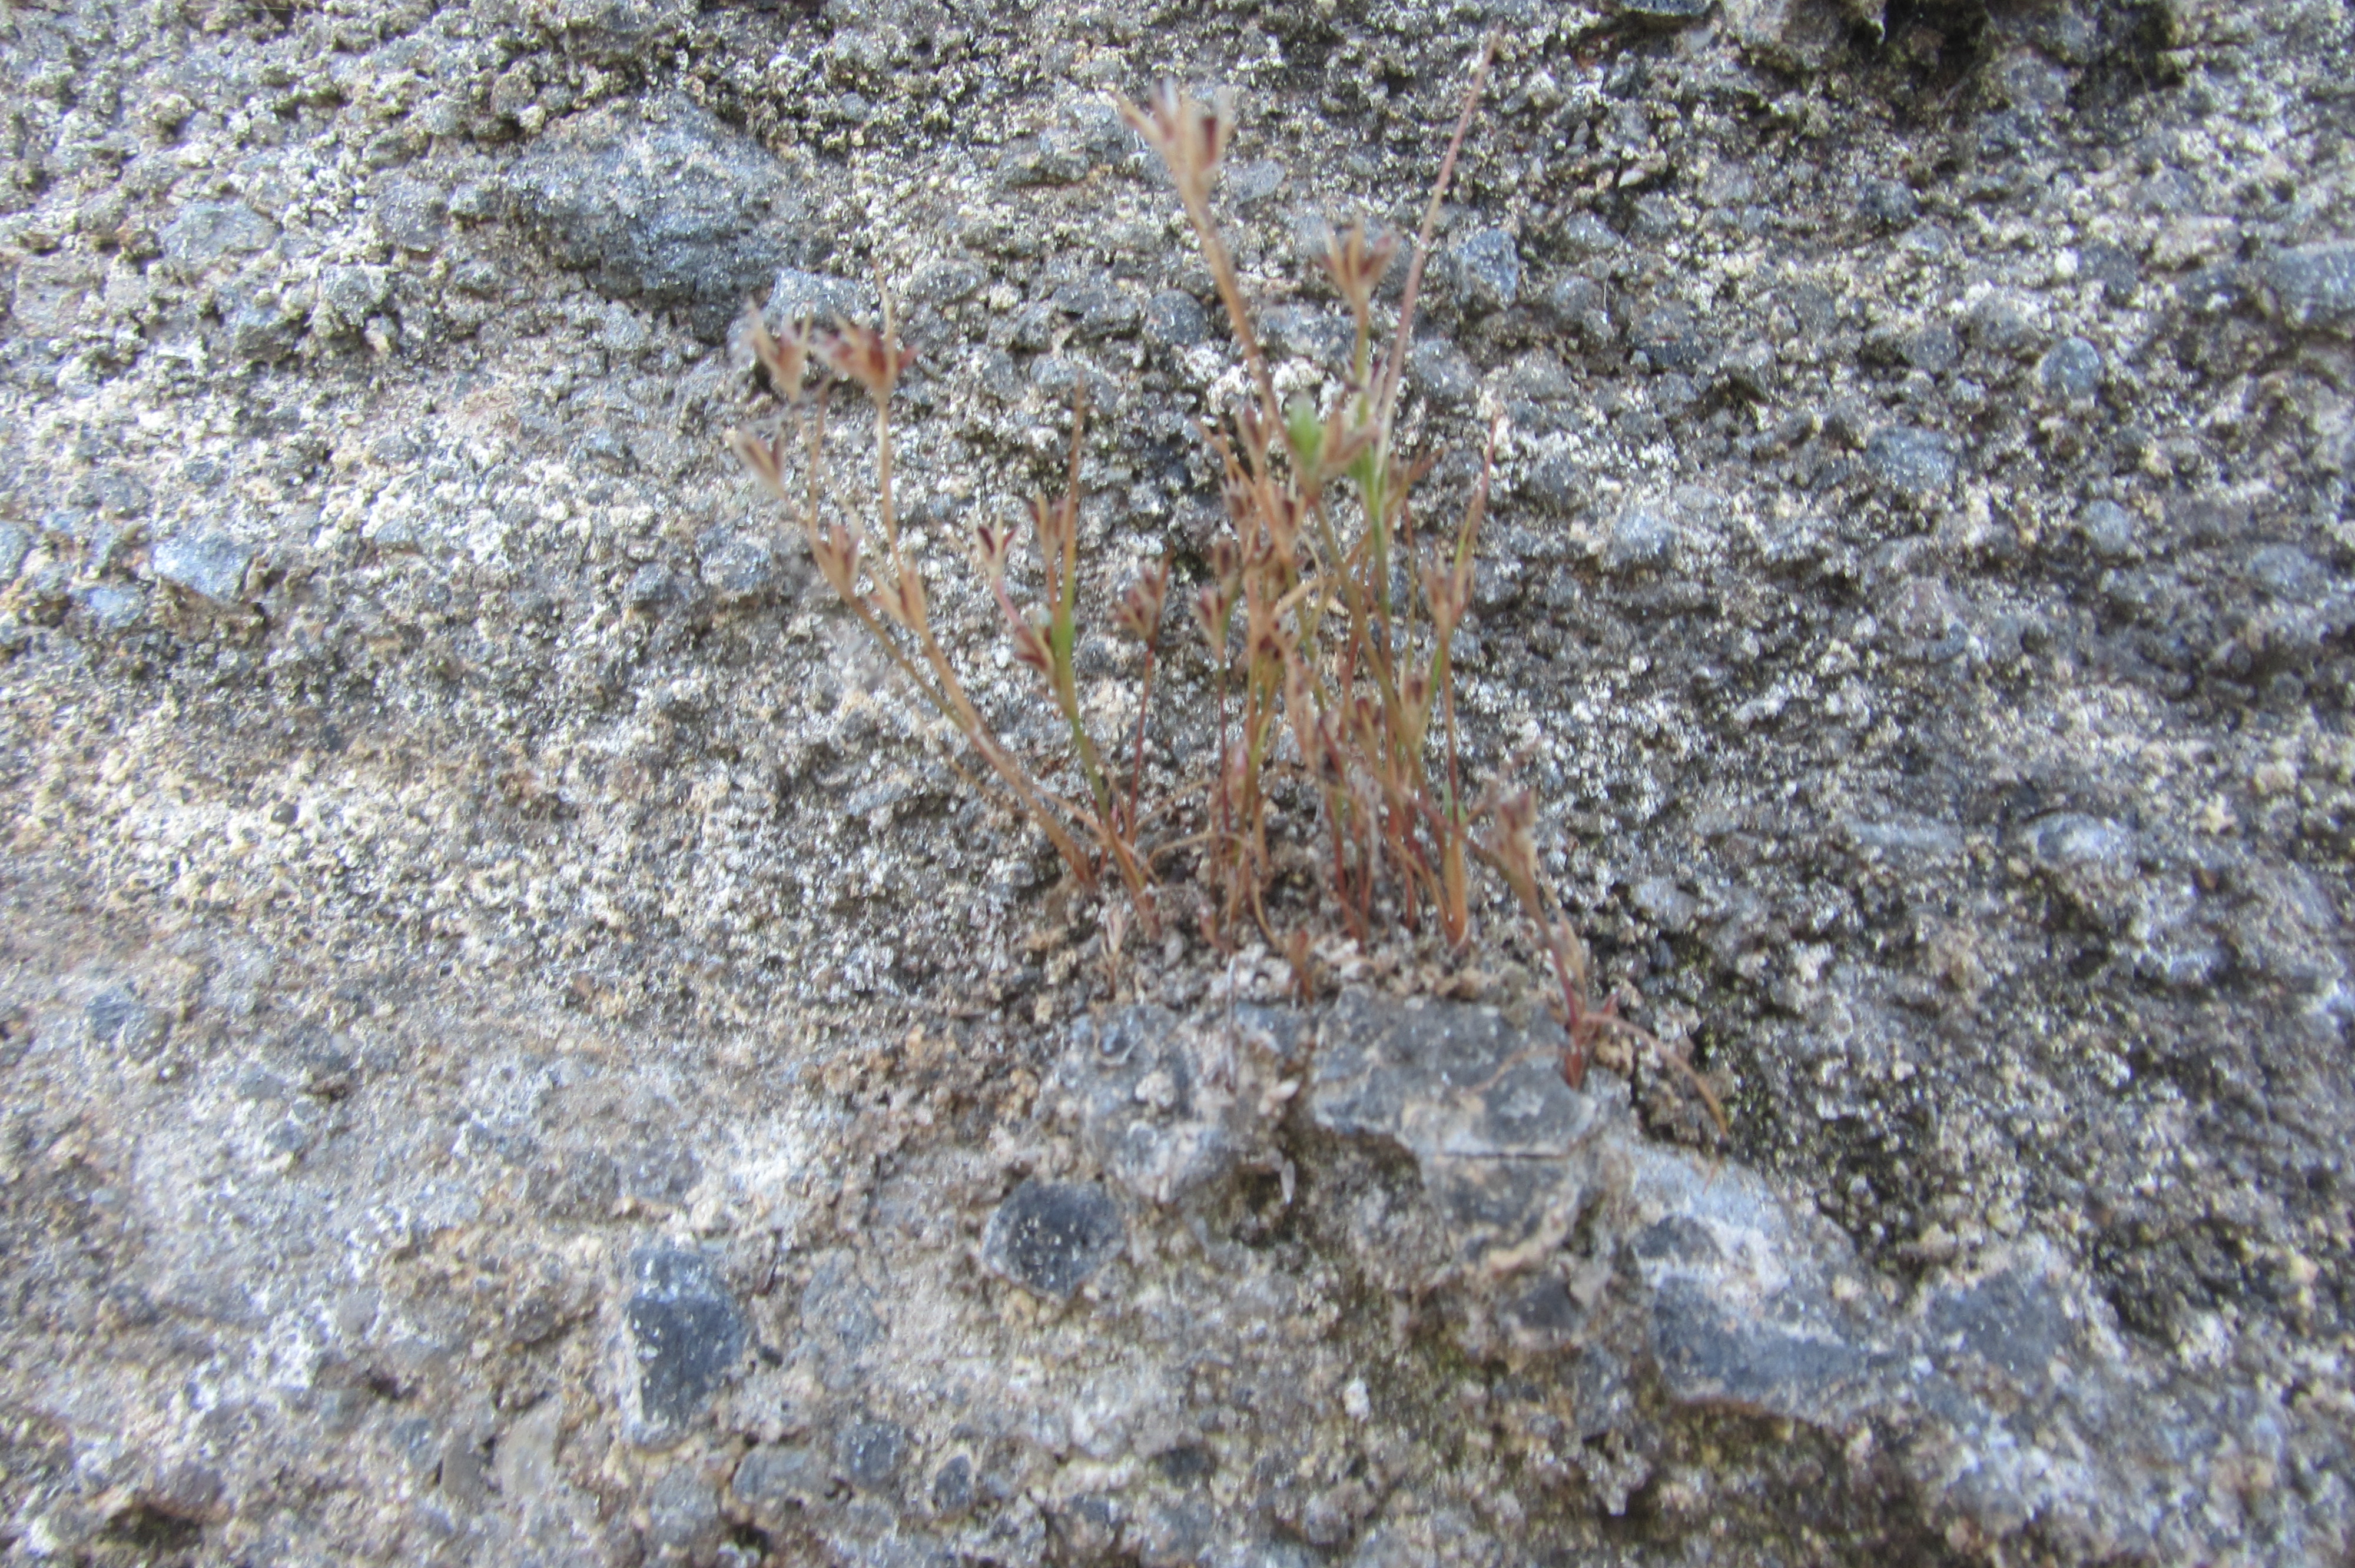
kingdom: Plantae
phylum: Tracheophyta
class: Liliopsida
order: Poales
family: Juncaceae
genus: Juncus
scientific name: Juncus bufonius
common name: Toad rush
